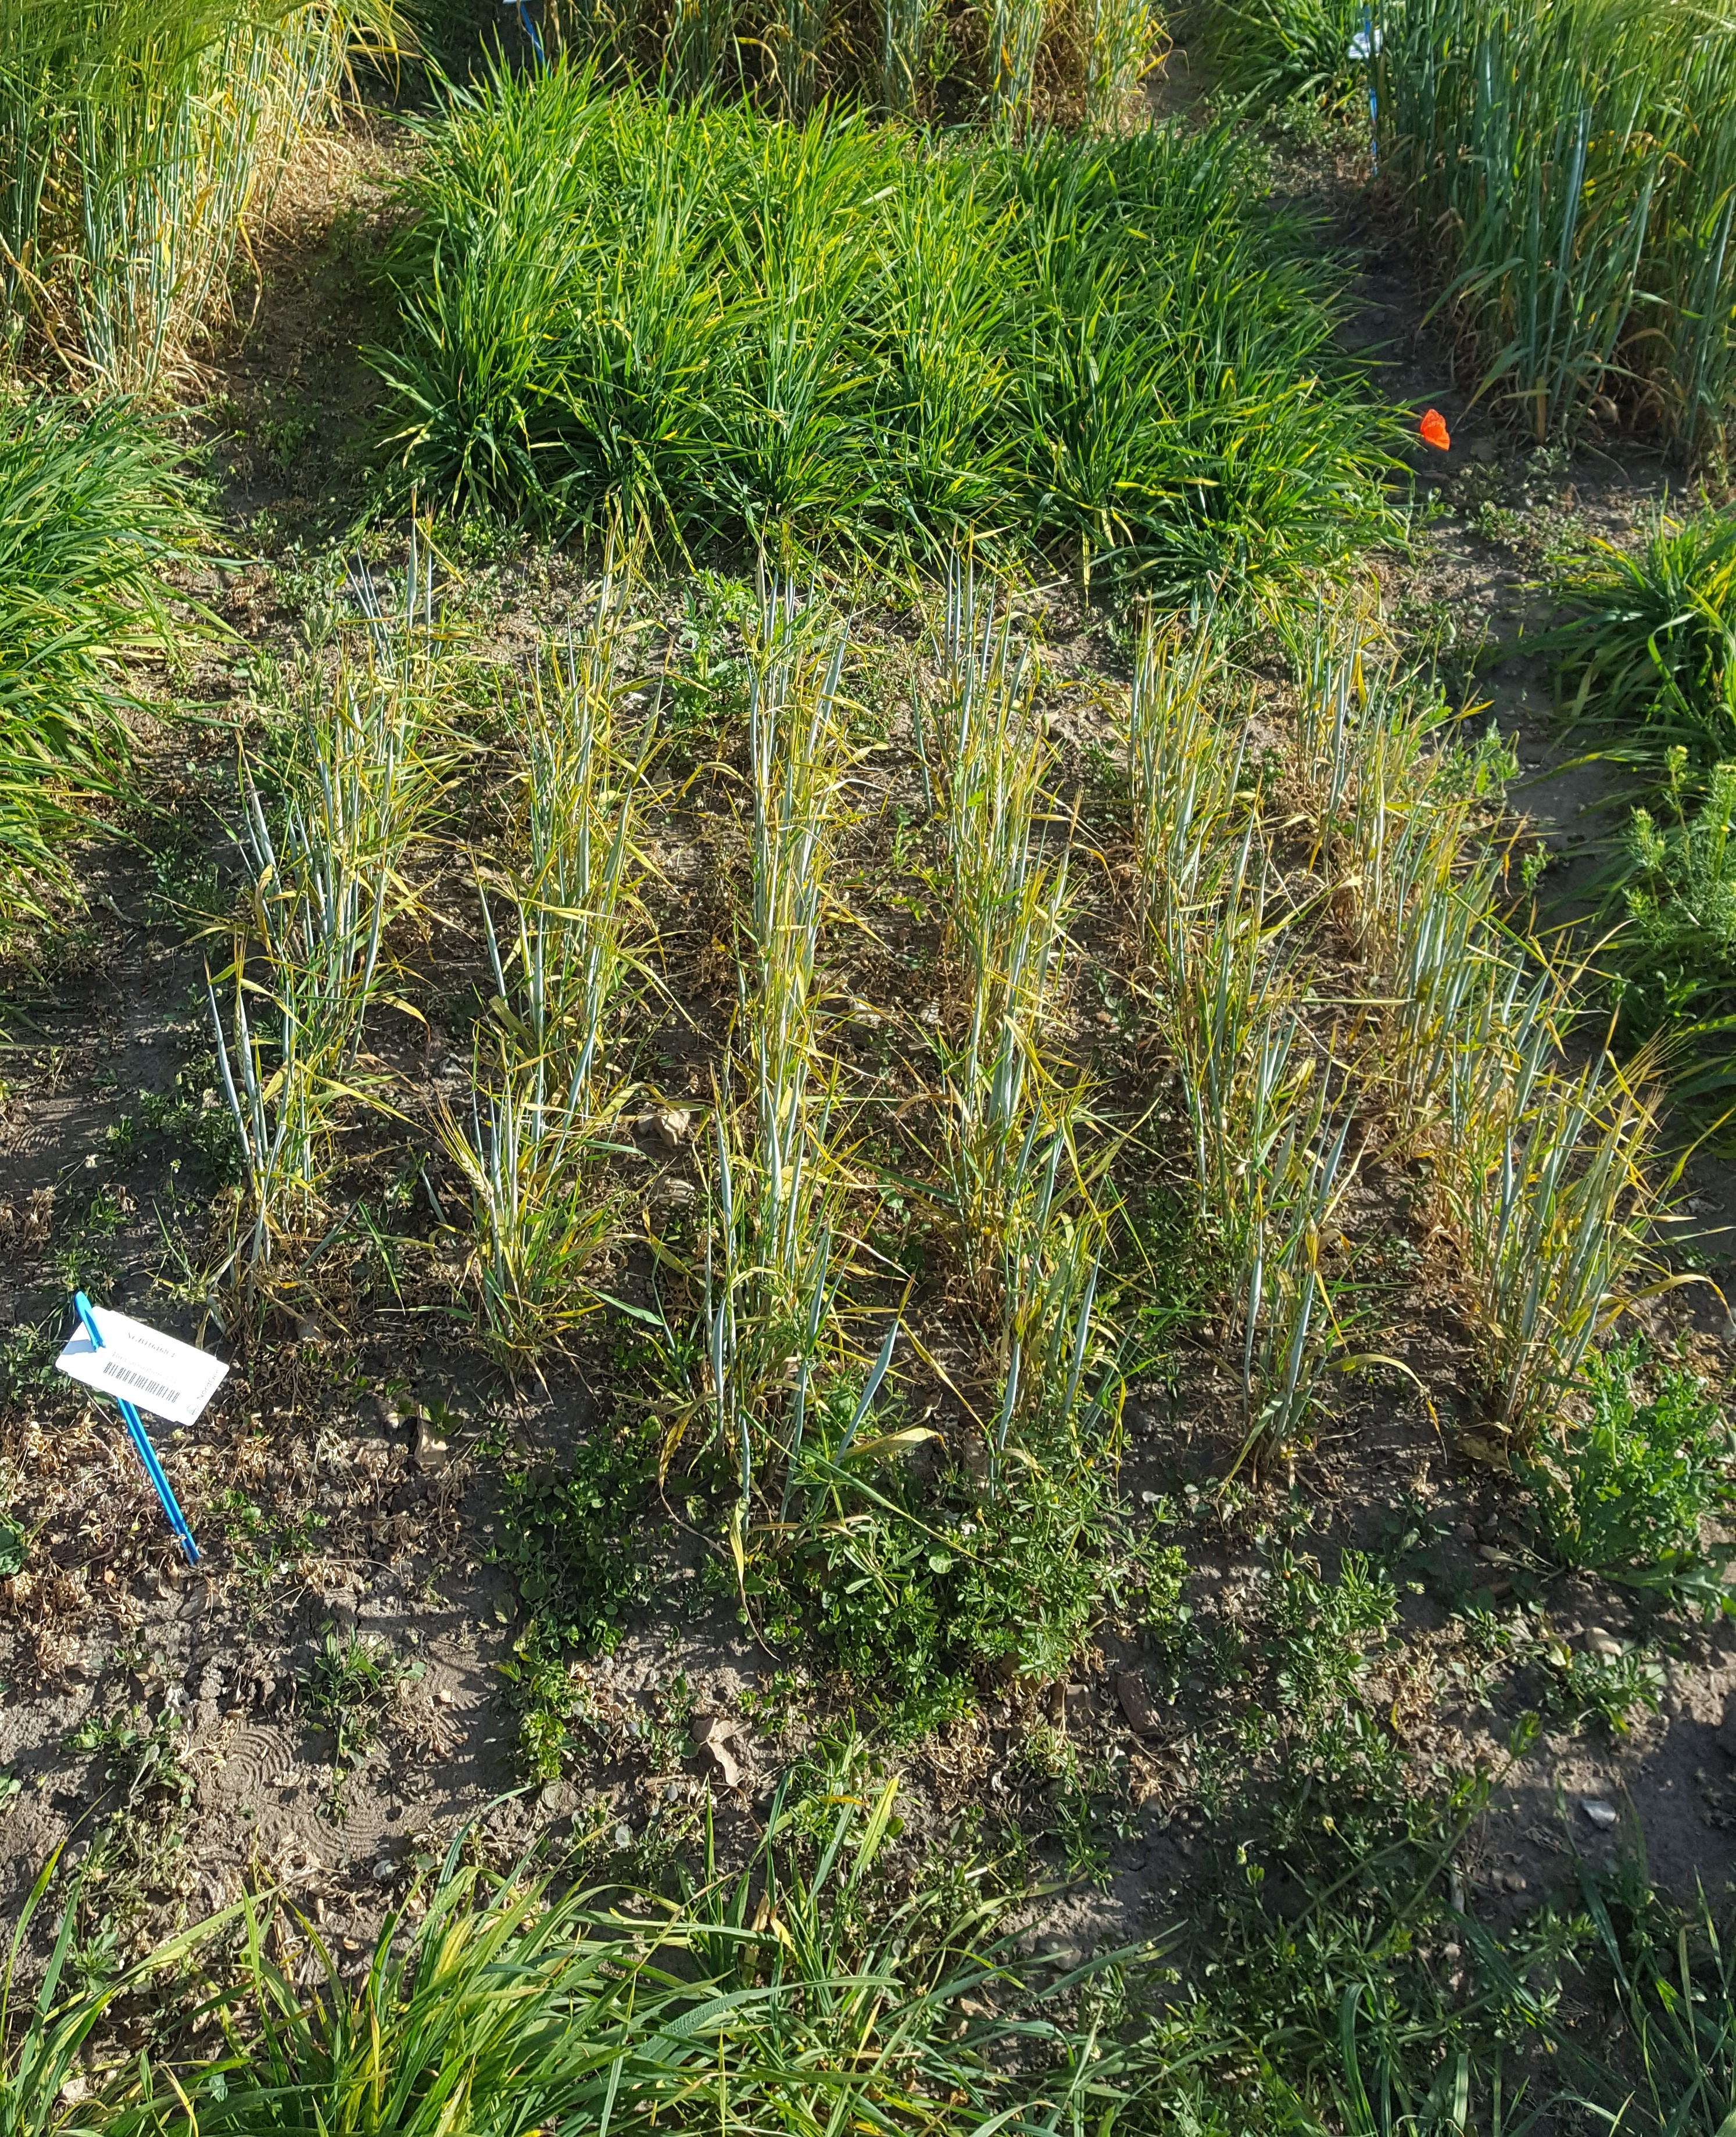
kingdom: Plantae
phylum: Tracheophyta
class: Liliopsida
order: Poales
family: Poaceae
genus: Hordeum
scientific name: Hordeum vulgare
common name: Common barley
